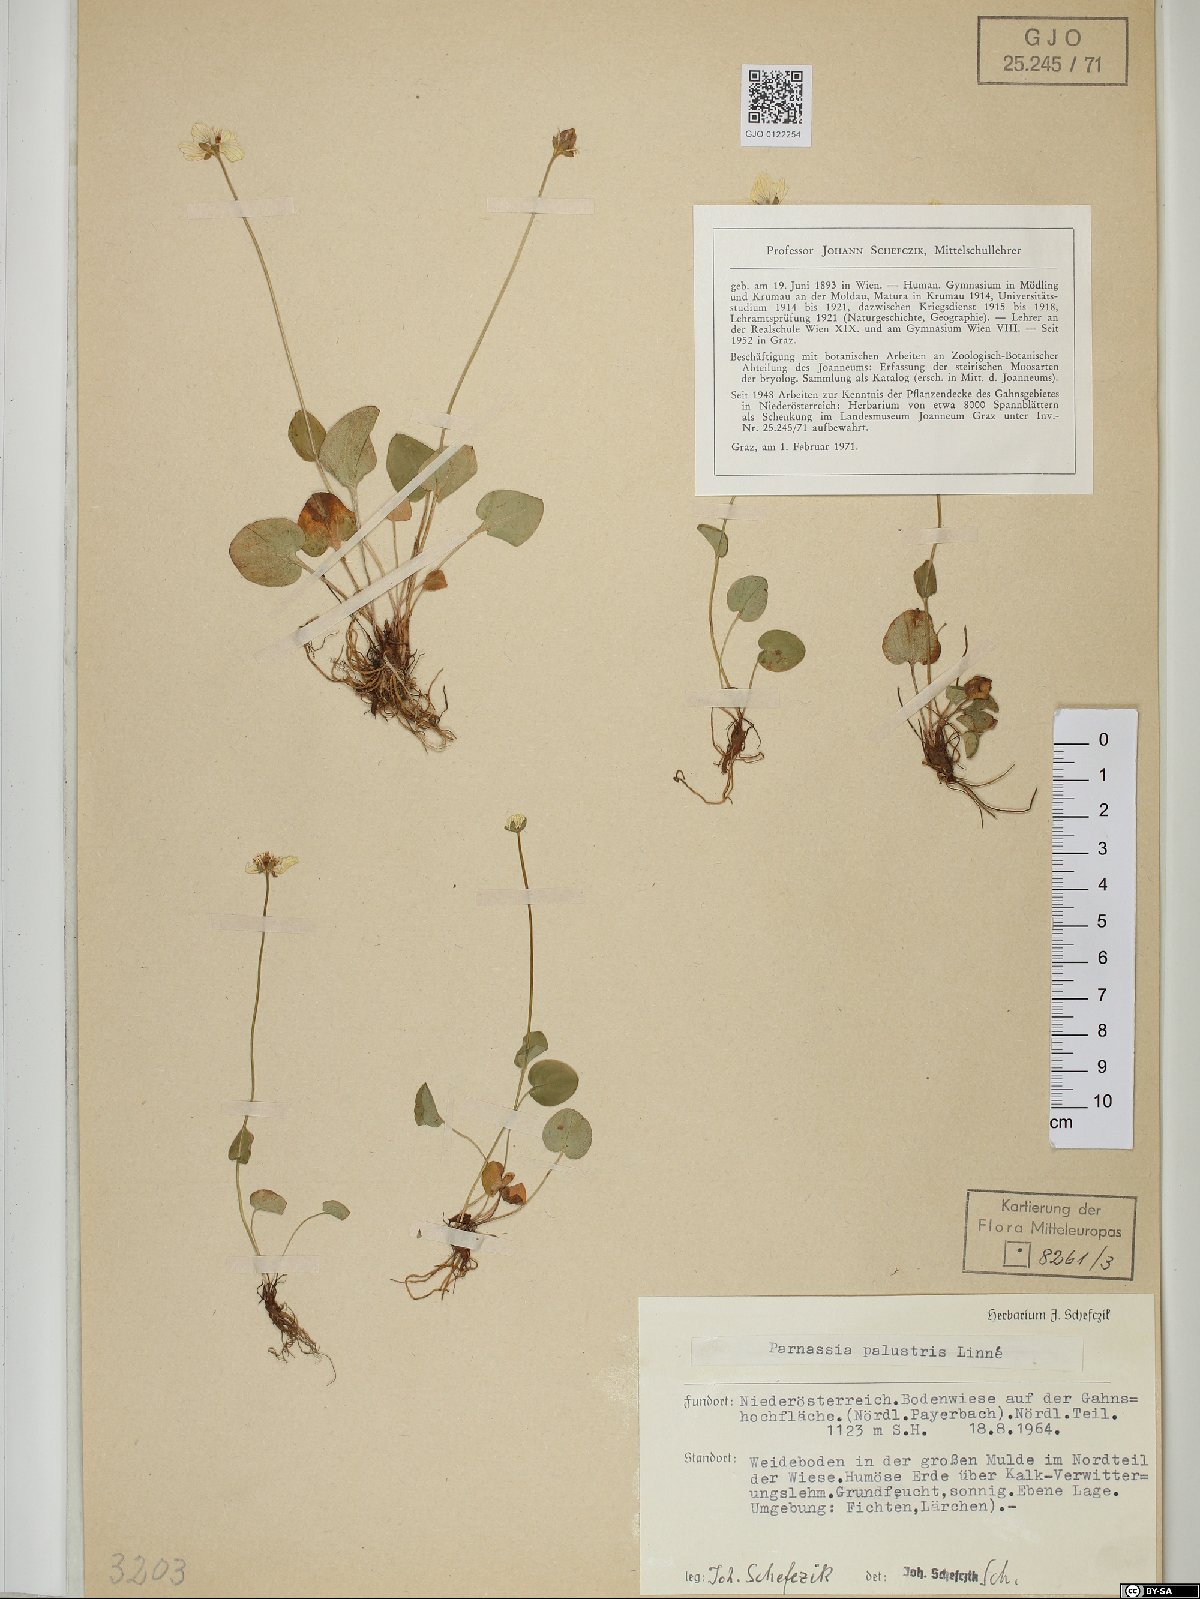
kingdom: Plantae
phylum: Tracheophyta
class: Magnoliopsida
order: Celastrales
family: Parnassiaceae
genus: Parnassia
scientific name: Parnassia palustris
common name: Grass-of-parnassus
